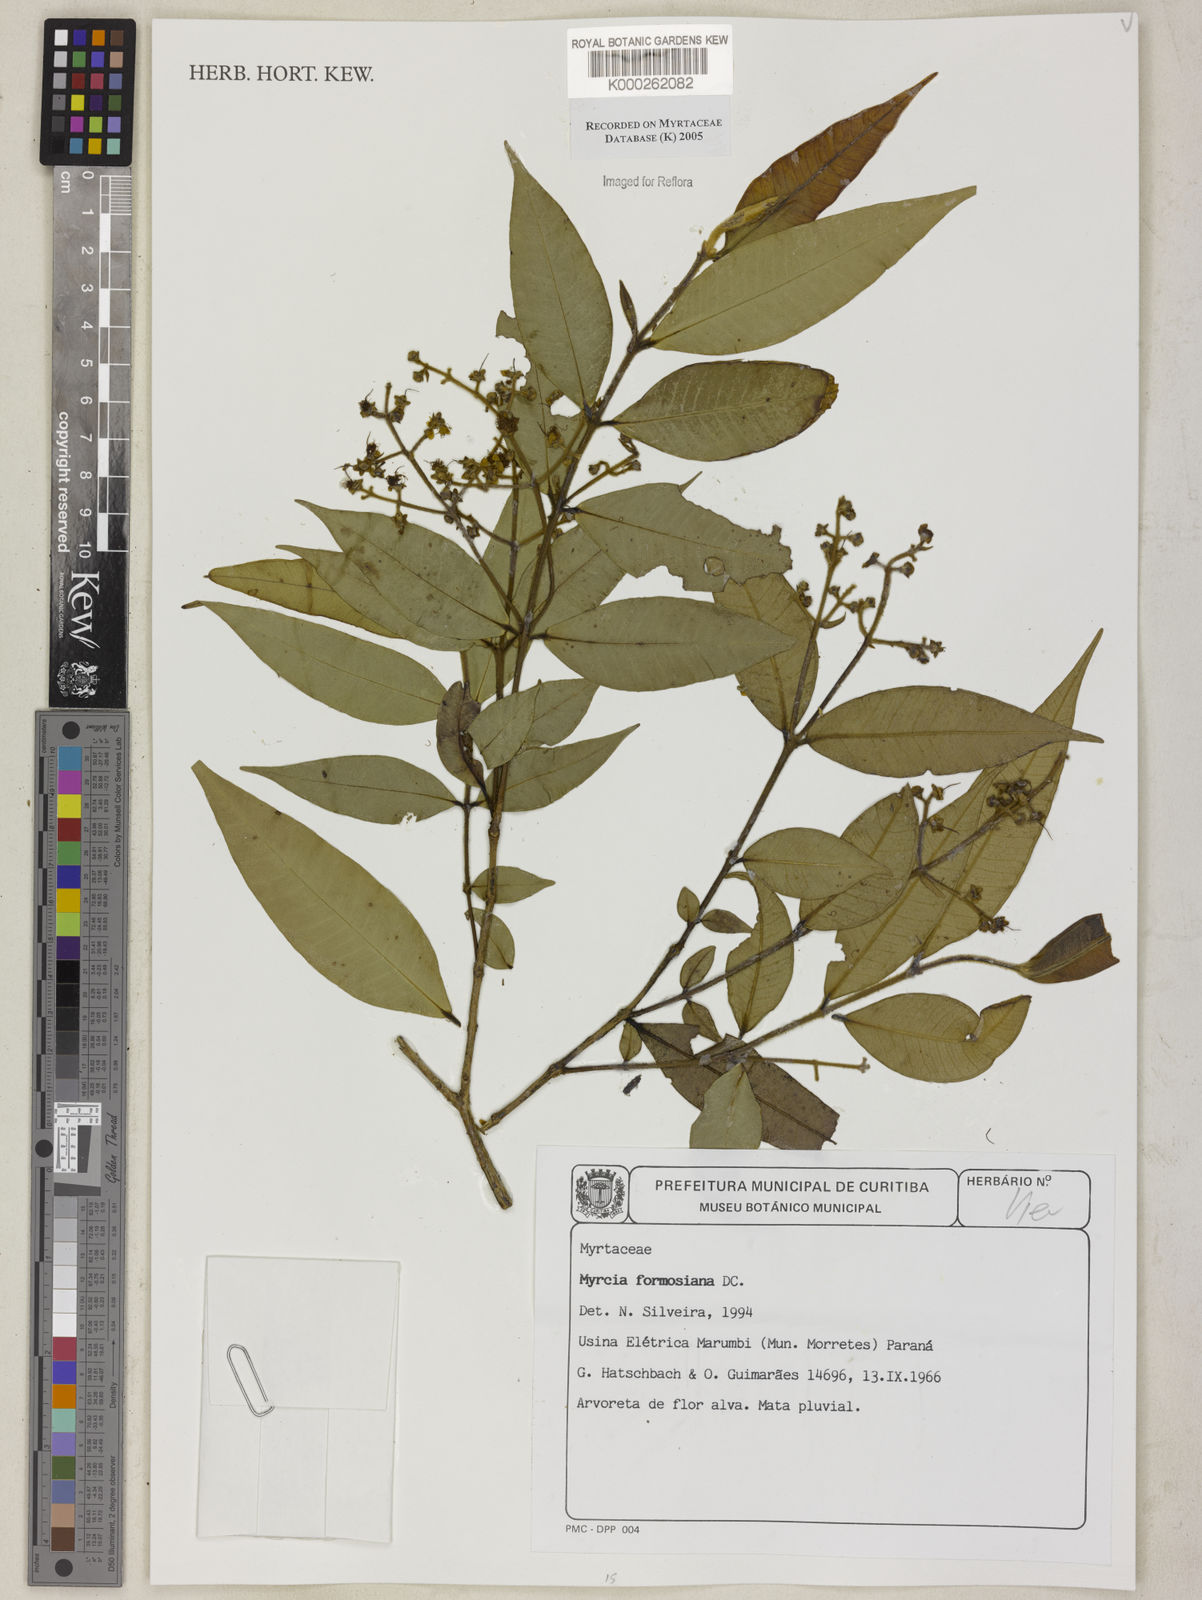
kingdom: Plantae
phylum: Tracheophyta
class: Magnoliopsida
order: Myrtales
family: Myrtaceae
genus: Myrcia
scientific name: Myrcia splendens
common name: Surinam cherry
